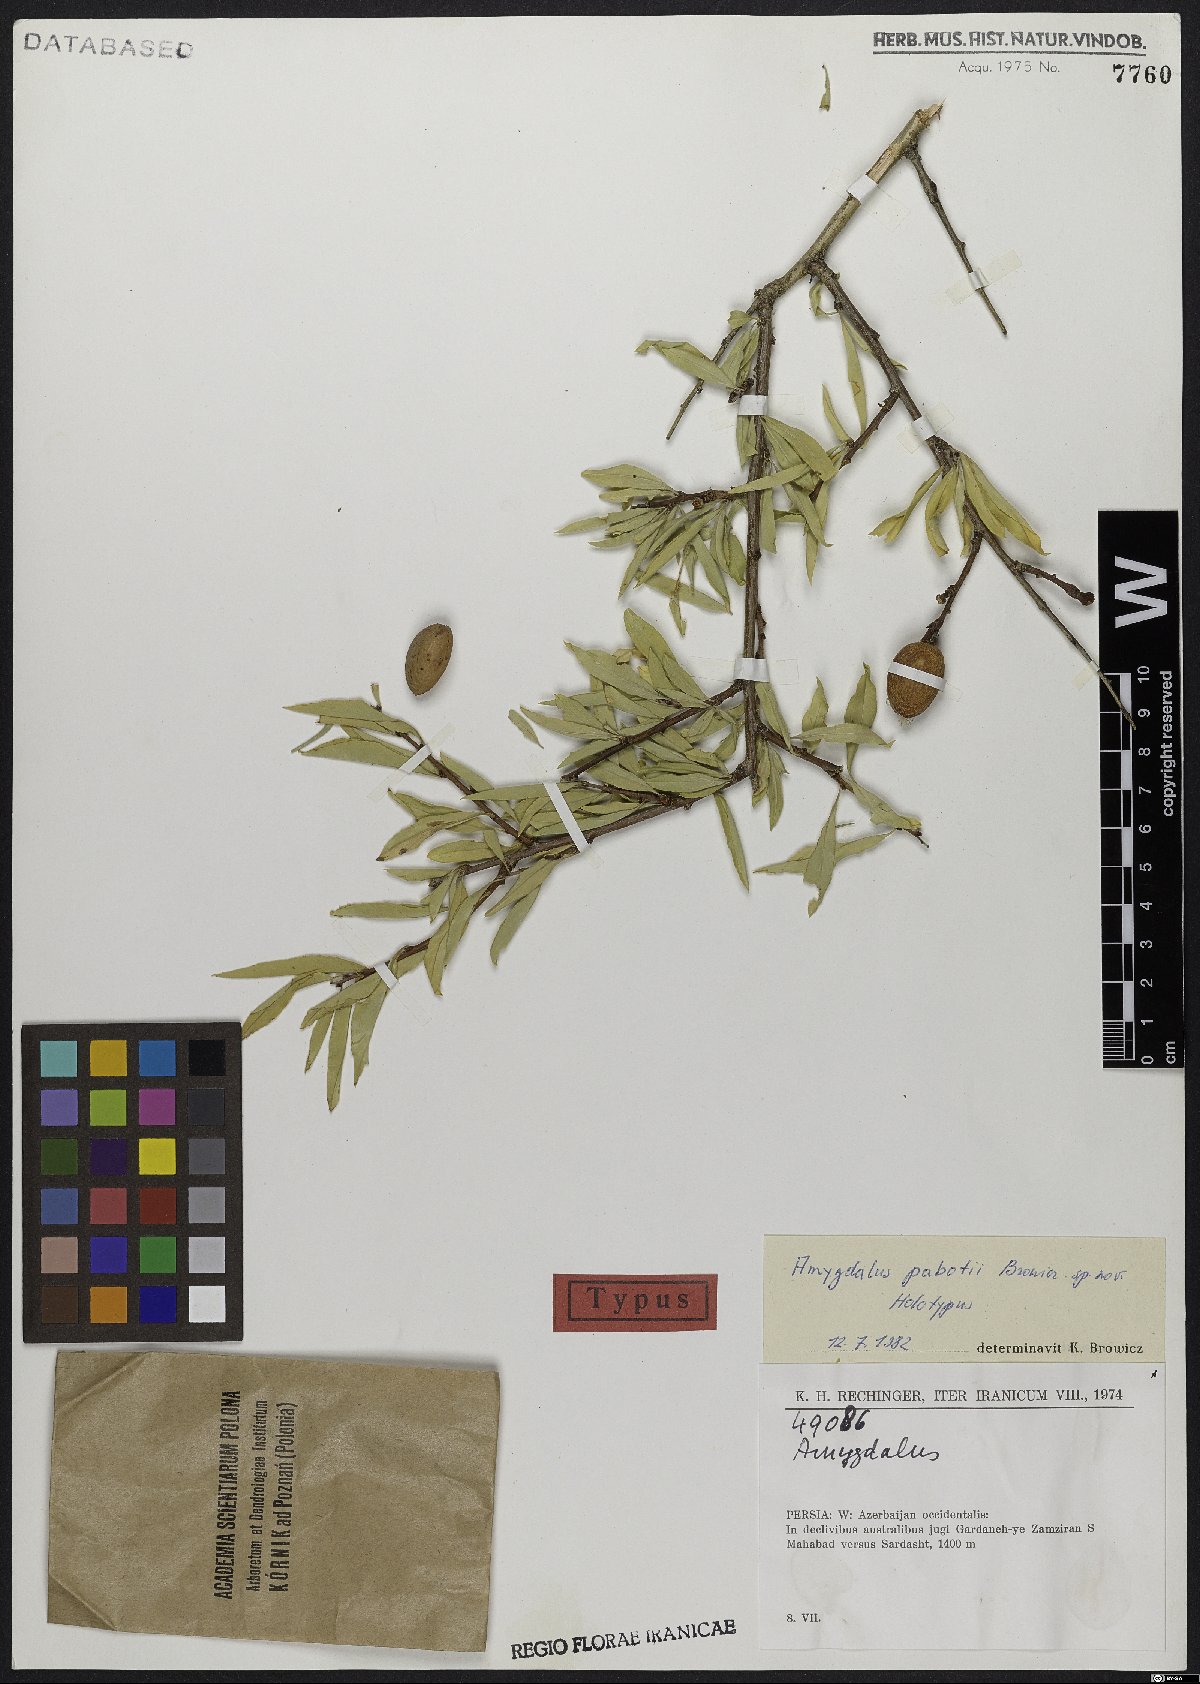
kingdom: Plantae
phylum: Tracheophyta
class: Magnoliopsida
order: Rosales
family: Rosaceae
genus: Prunus
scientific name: Prunus pabotii
